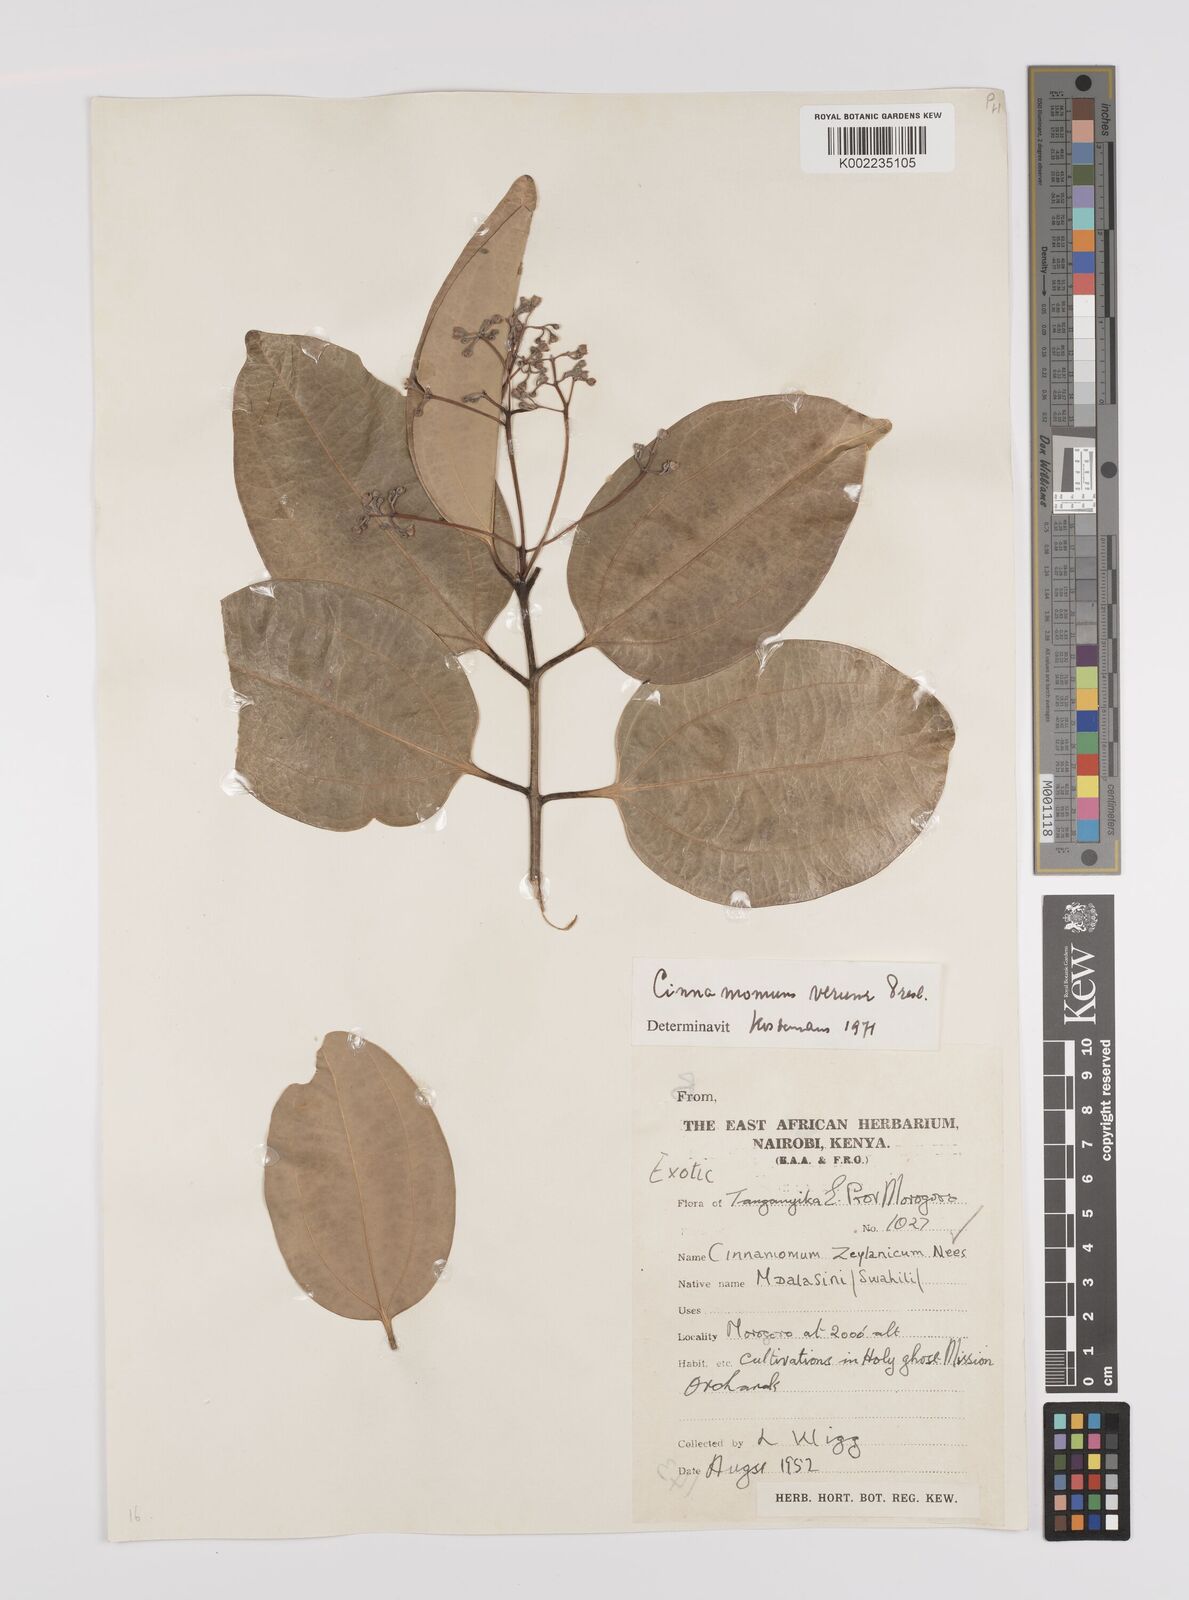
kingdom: Plantae
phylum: Tracheophyta
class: Magnoliopsida
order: Laurales
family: Lauraceae
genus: Cinnamomum
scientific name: Cinnamomum verum
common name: Cinnamon
